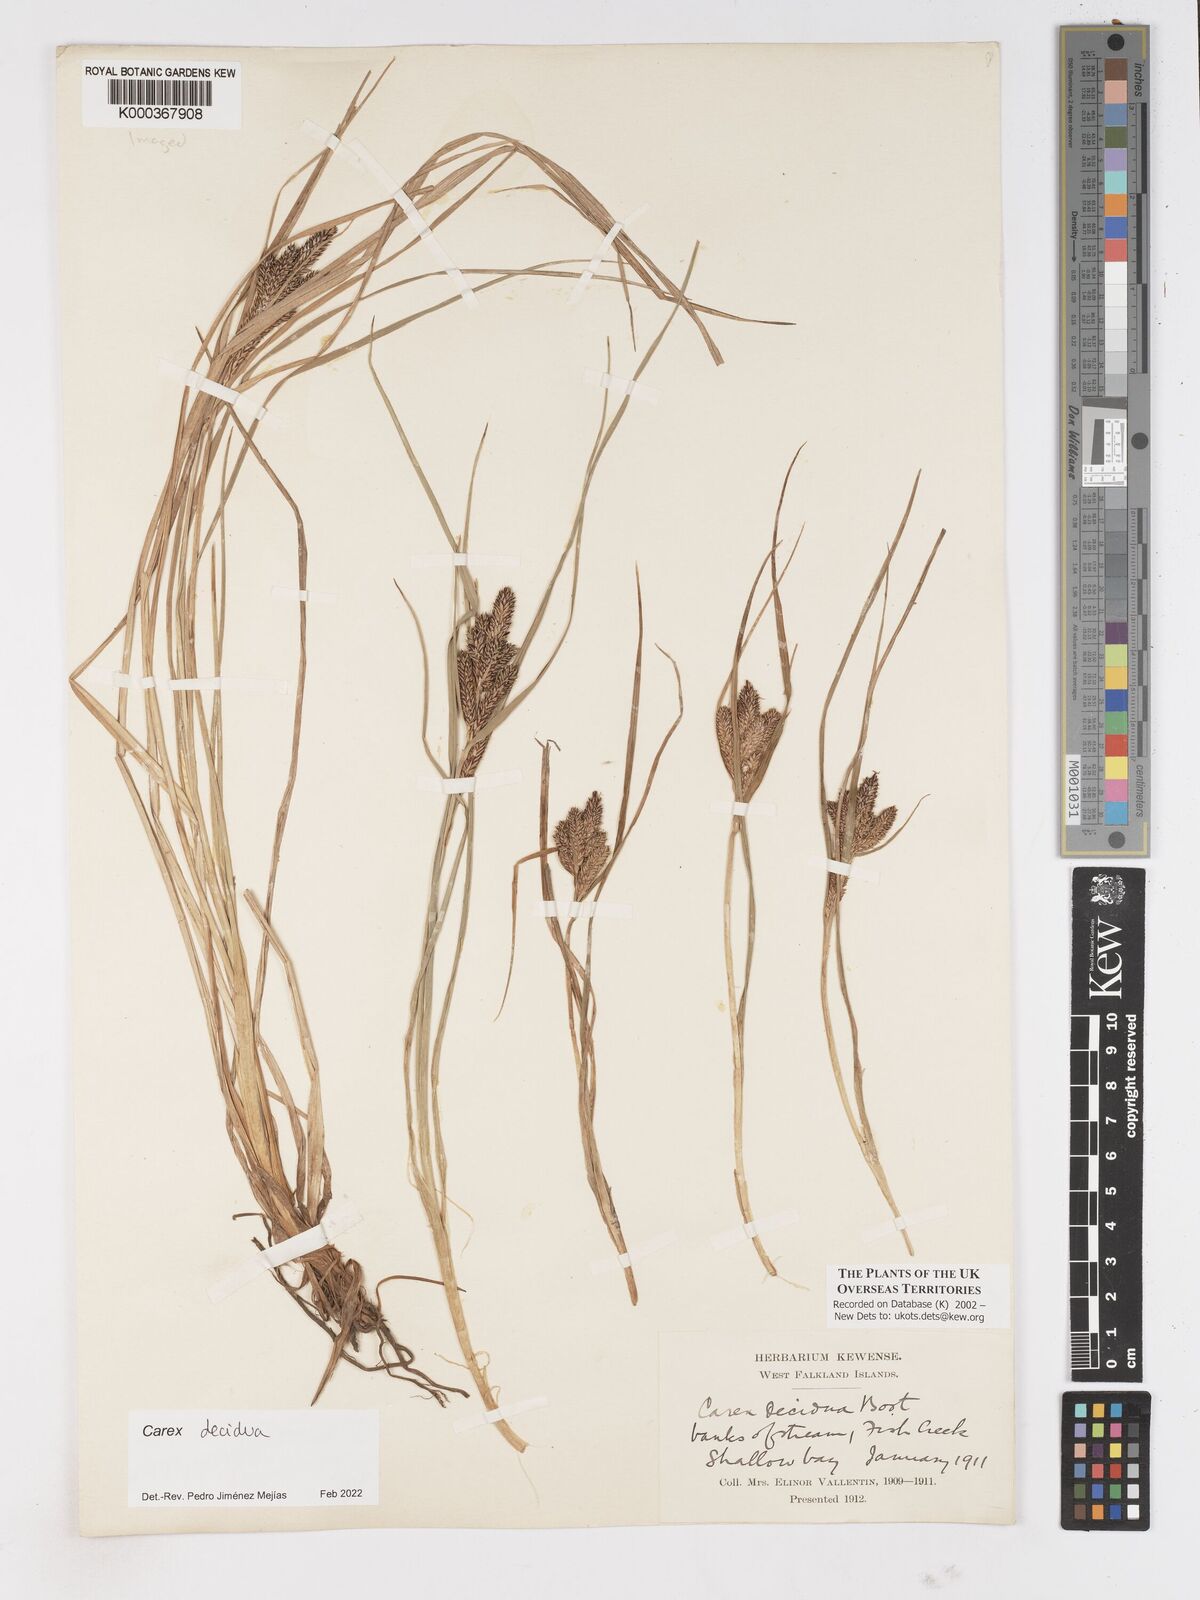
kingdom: Plantae
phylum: Tracheophyta
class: Liliopsida
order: Poales
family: Cyperaceae
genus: Carex
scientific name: Carex decidua
